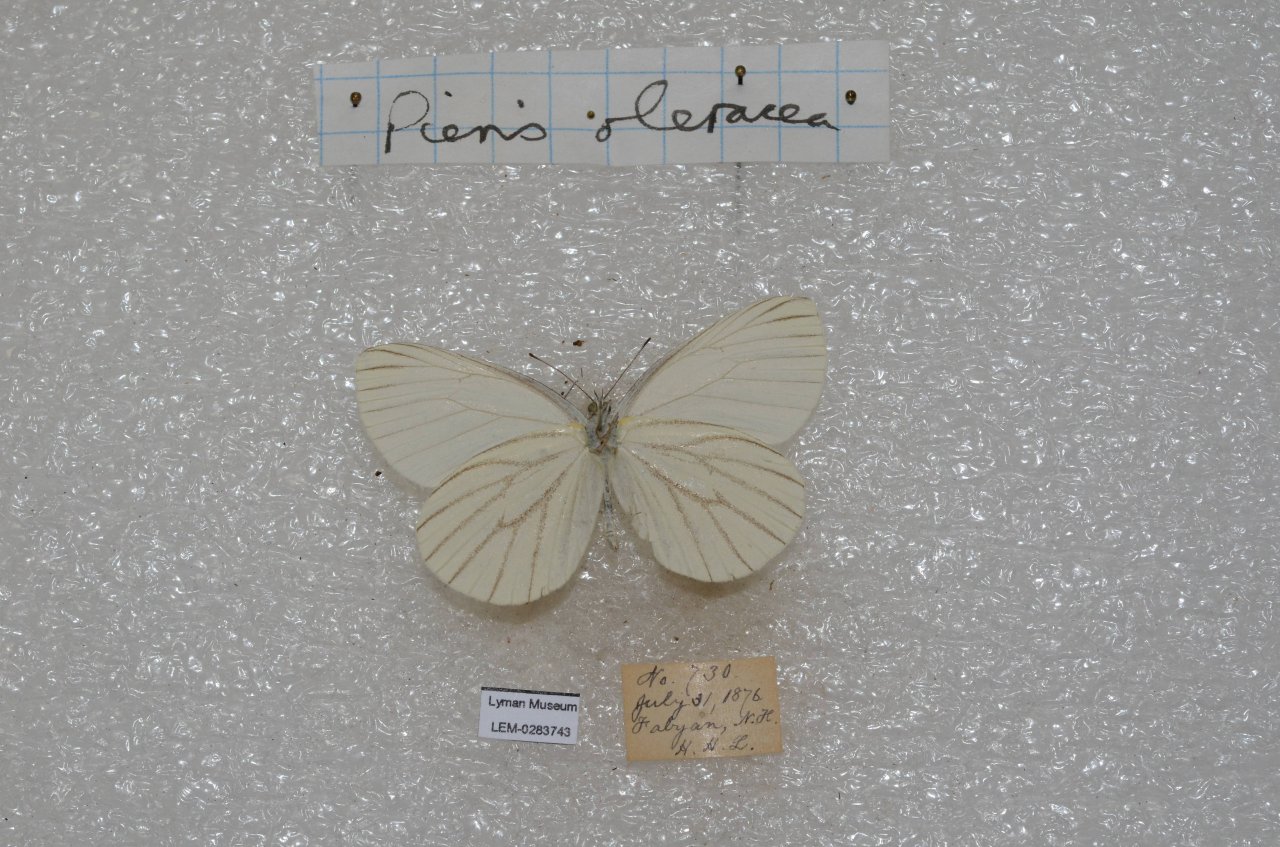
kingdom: Animalia
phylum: Arthropoda
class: Insecta
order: Lepidoptera
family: Pieridae
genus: Pieris
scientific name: Pieris oleracea
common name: Mustard White
